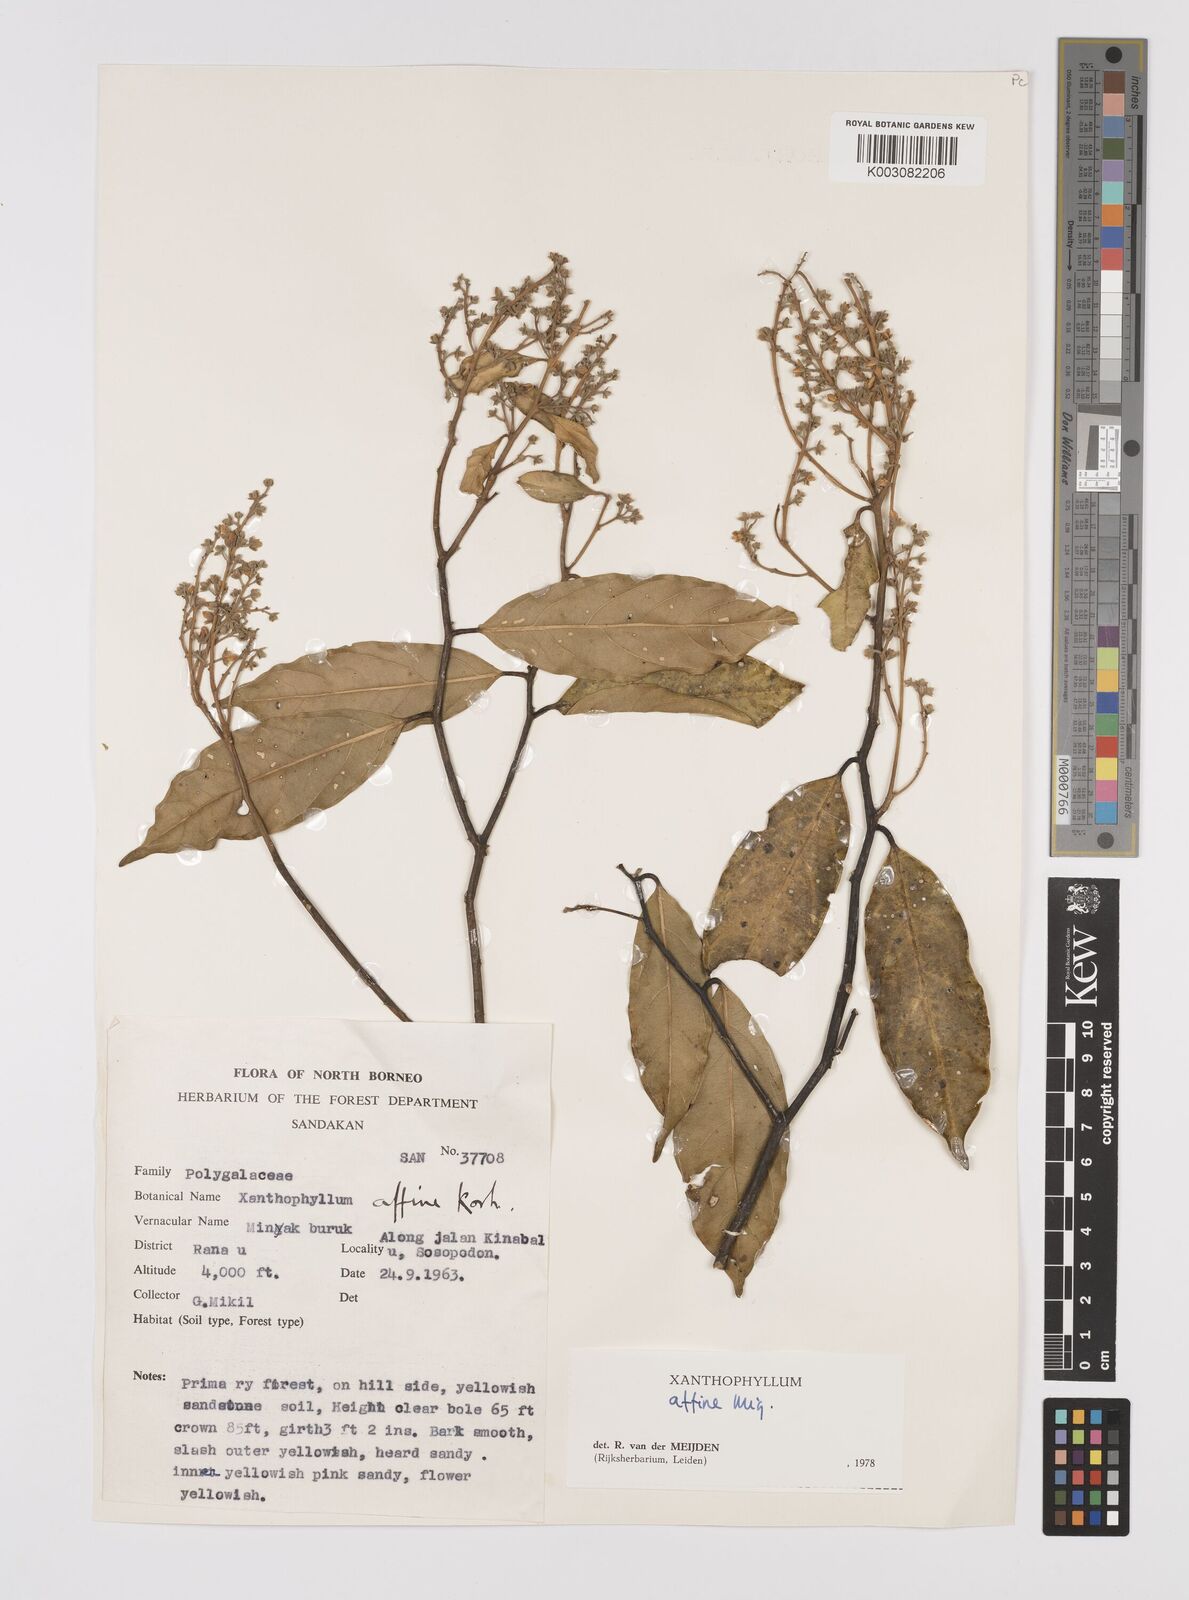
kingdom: Plantae
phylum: Tracheophyta
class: Magnoliopsida
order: Fabales
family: Polygalaceae
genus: Xanthophyllum
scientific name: Xanthophyllum flavescens
